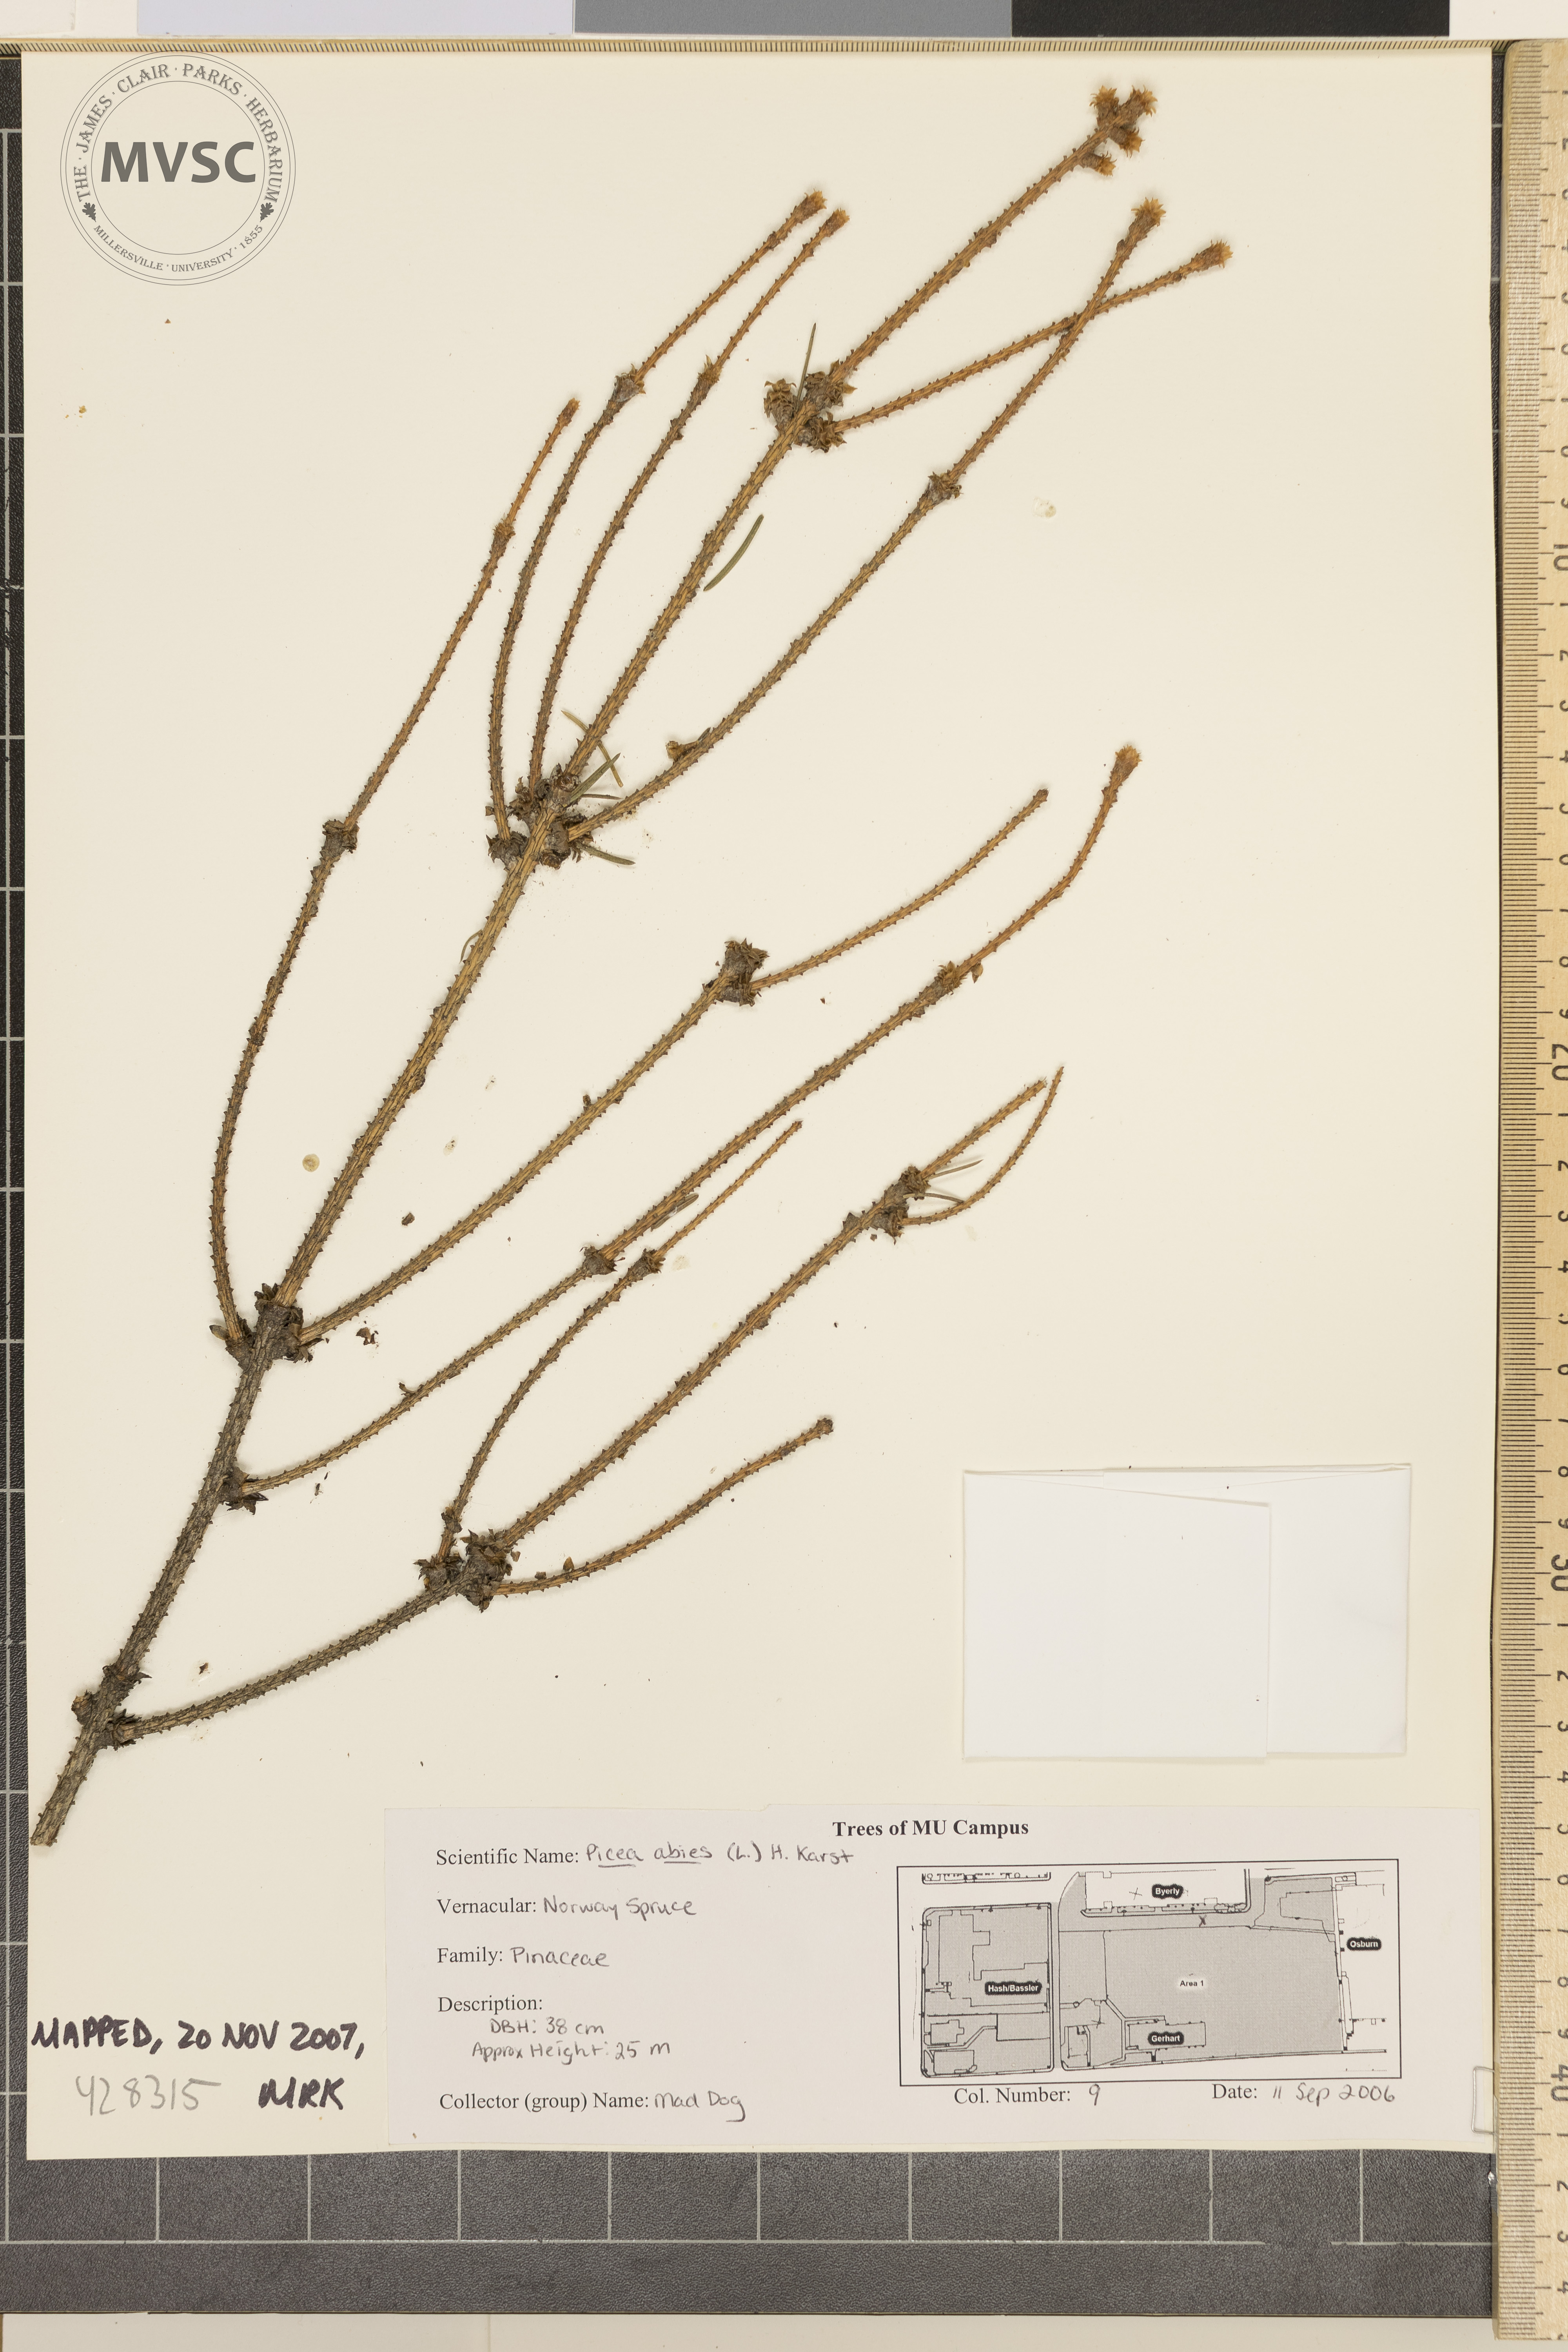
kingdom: Plantae
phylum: Tracheophyta
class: Pinopsida
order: Pinales
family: Pinaceae
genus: Picea
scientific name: Picea abies
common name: Norway Spruce
